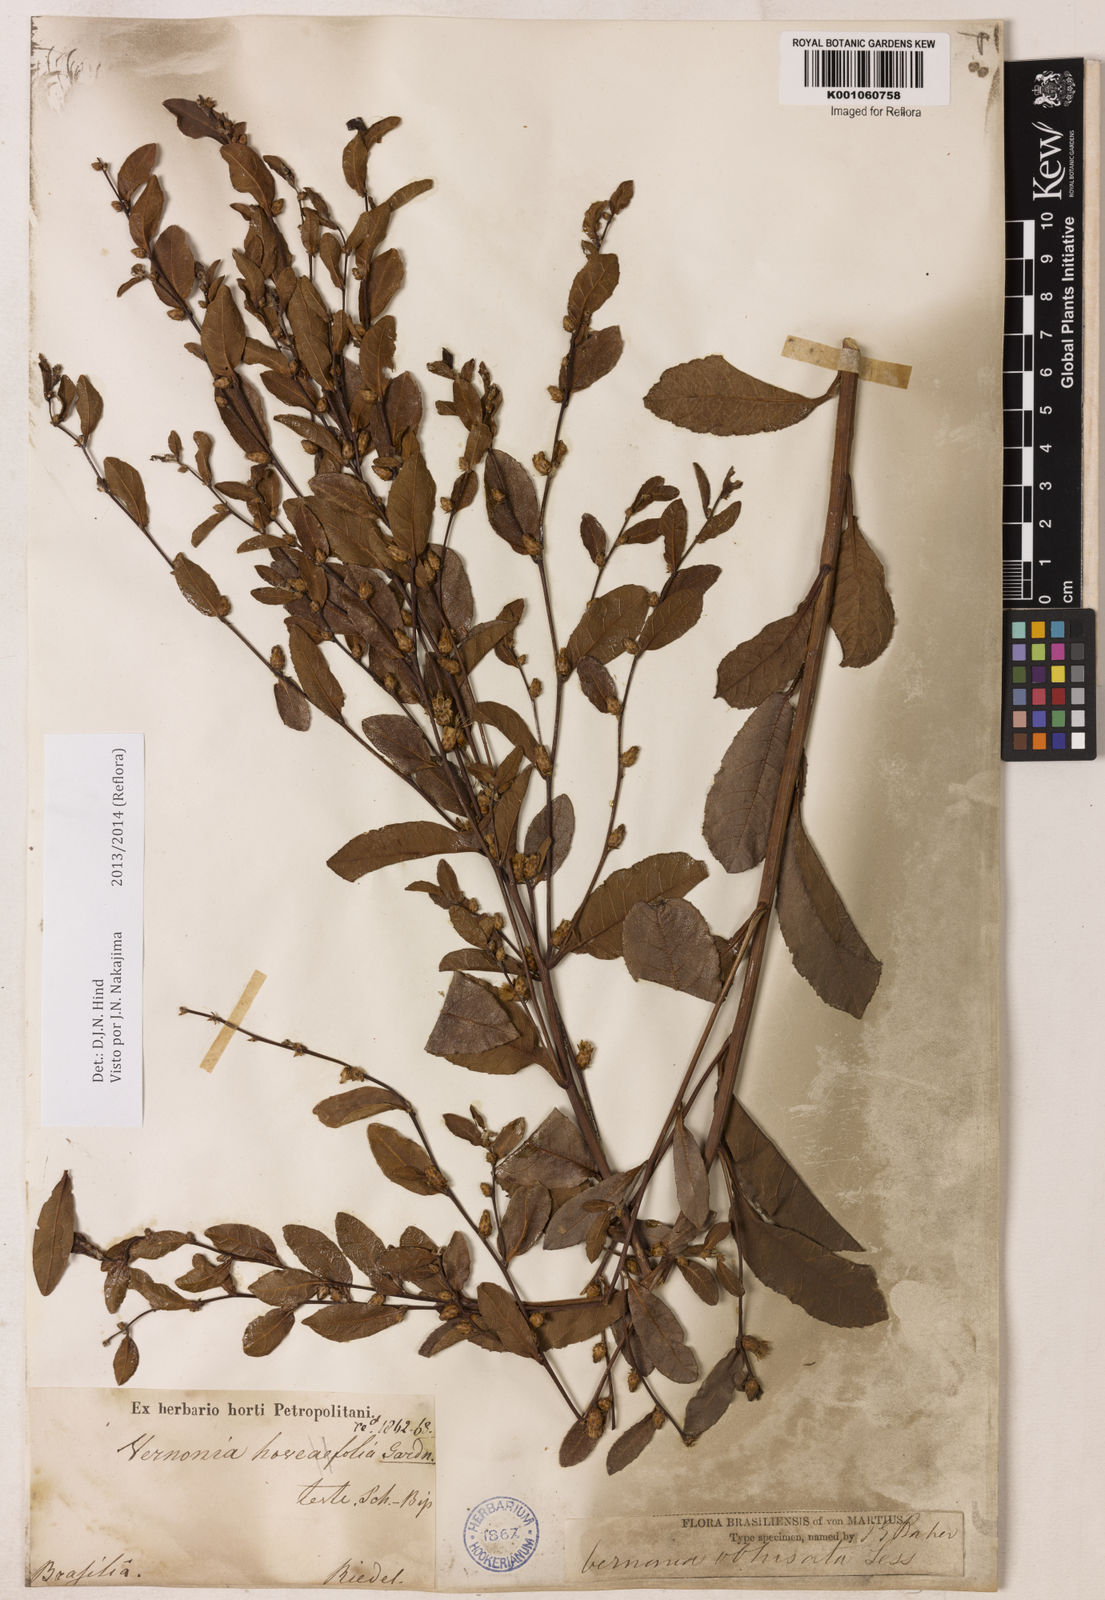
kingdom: Plantae
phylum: Tracheophyta
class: Magnoliopsida
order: Asterales
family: Asteraceae
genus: Lessingianthus
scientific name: Lessingianthus obtusatus
